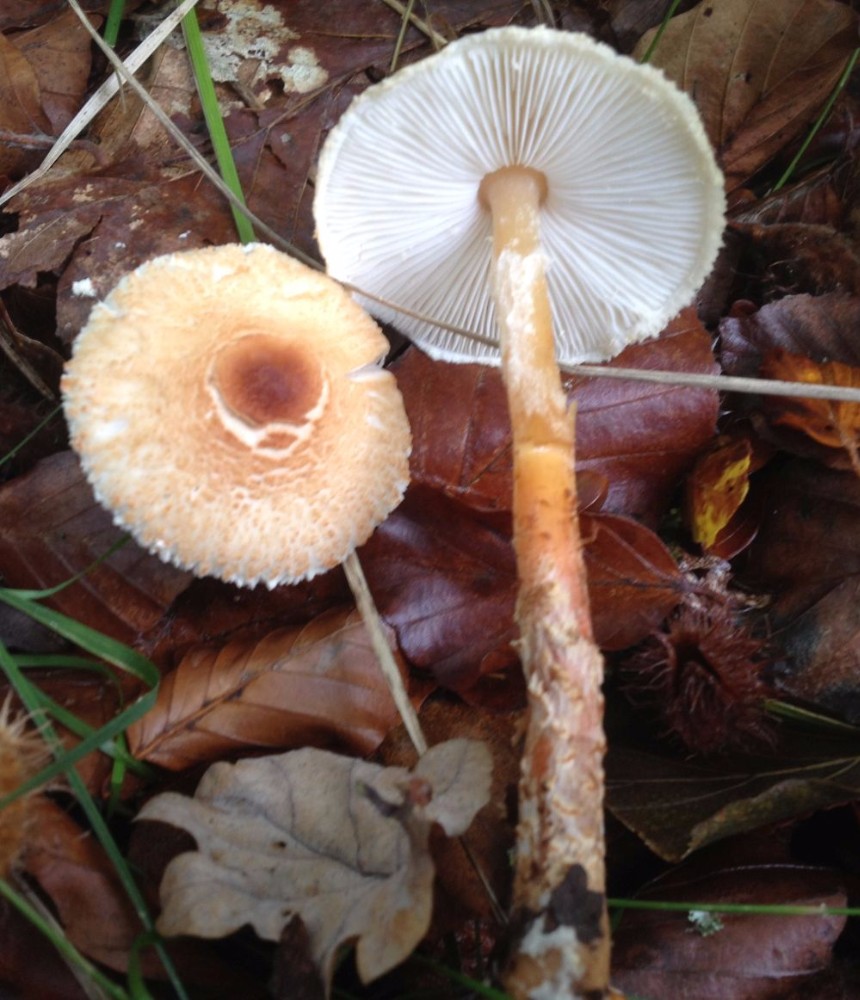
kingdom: Fungi
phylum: Basidiomycota
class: Agaricomycetes
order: Agaricales
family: Agaricaceae
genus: Lepiota
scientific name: Lepiota magnispora
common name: gulfnugget parasolhat
